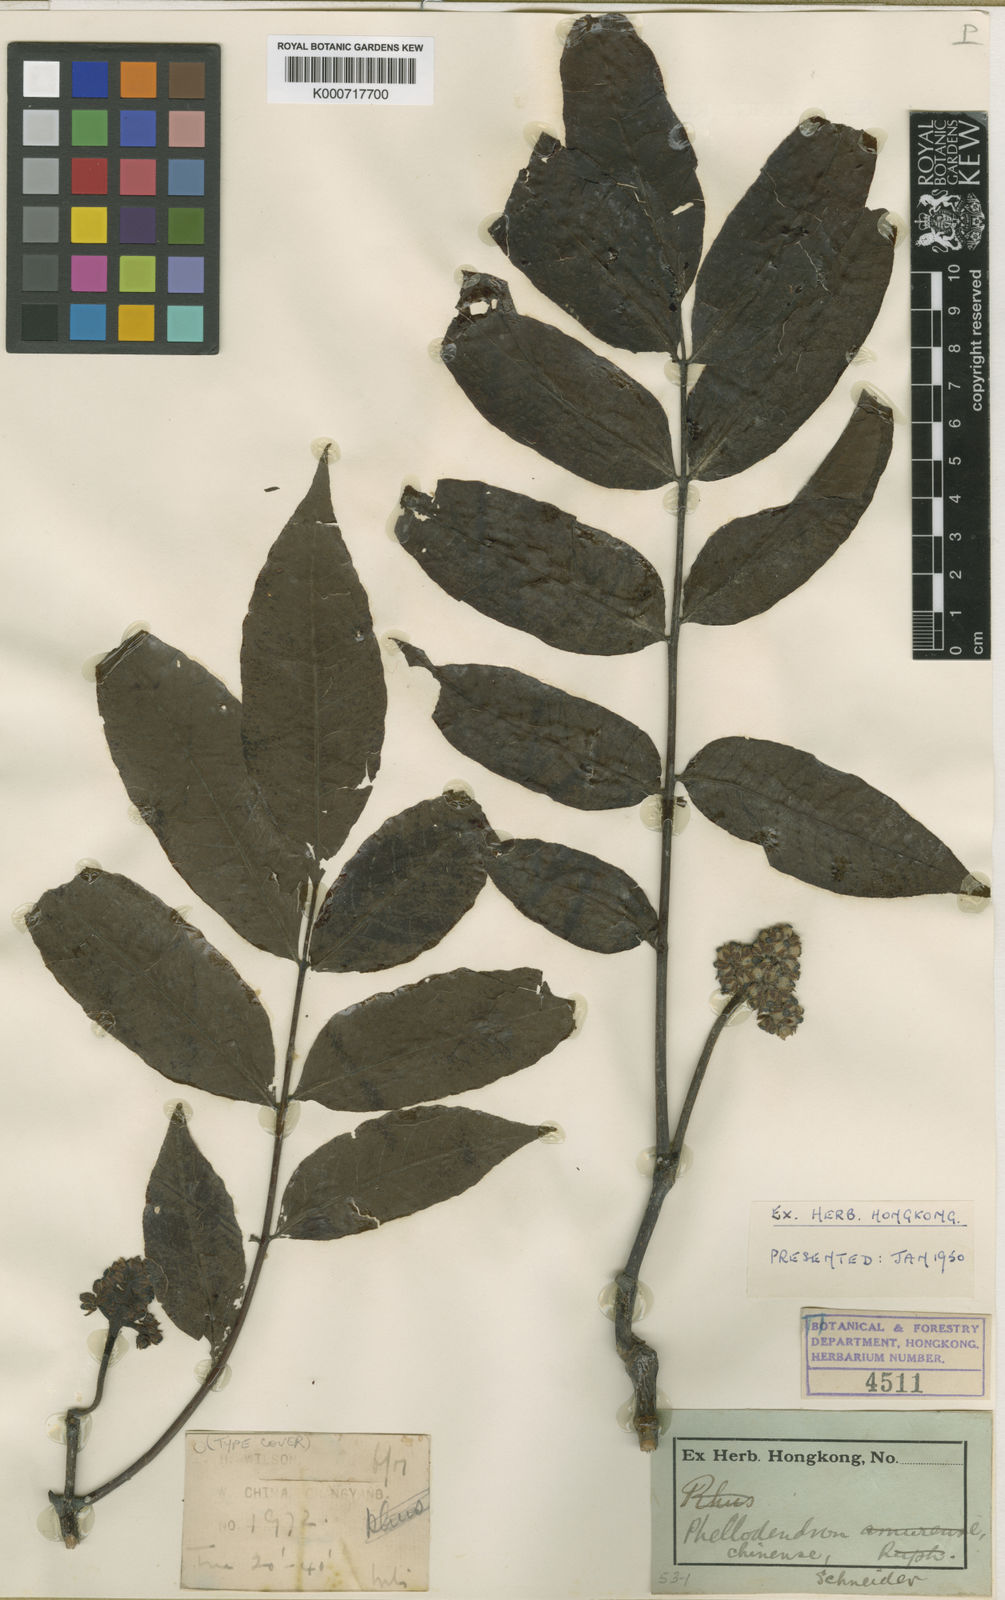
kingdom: Plantae
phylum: Tracheophyta
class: Magnoliopsida
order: Sapindales
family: Rutaceae
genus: Phellodendron
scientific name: Phellodendron chinense
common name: Phellodendron
